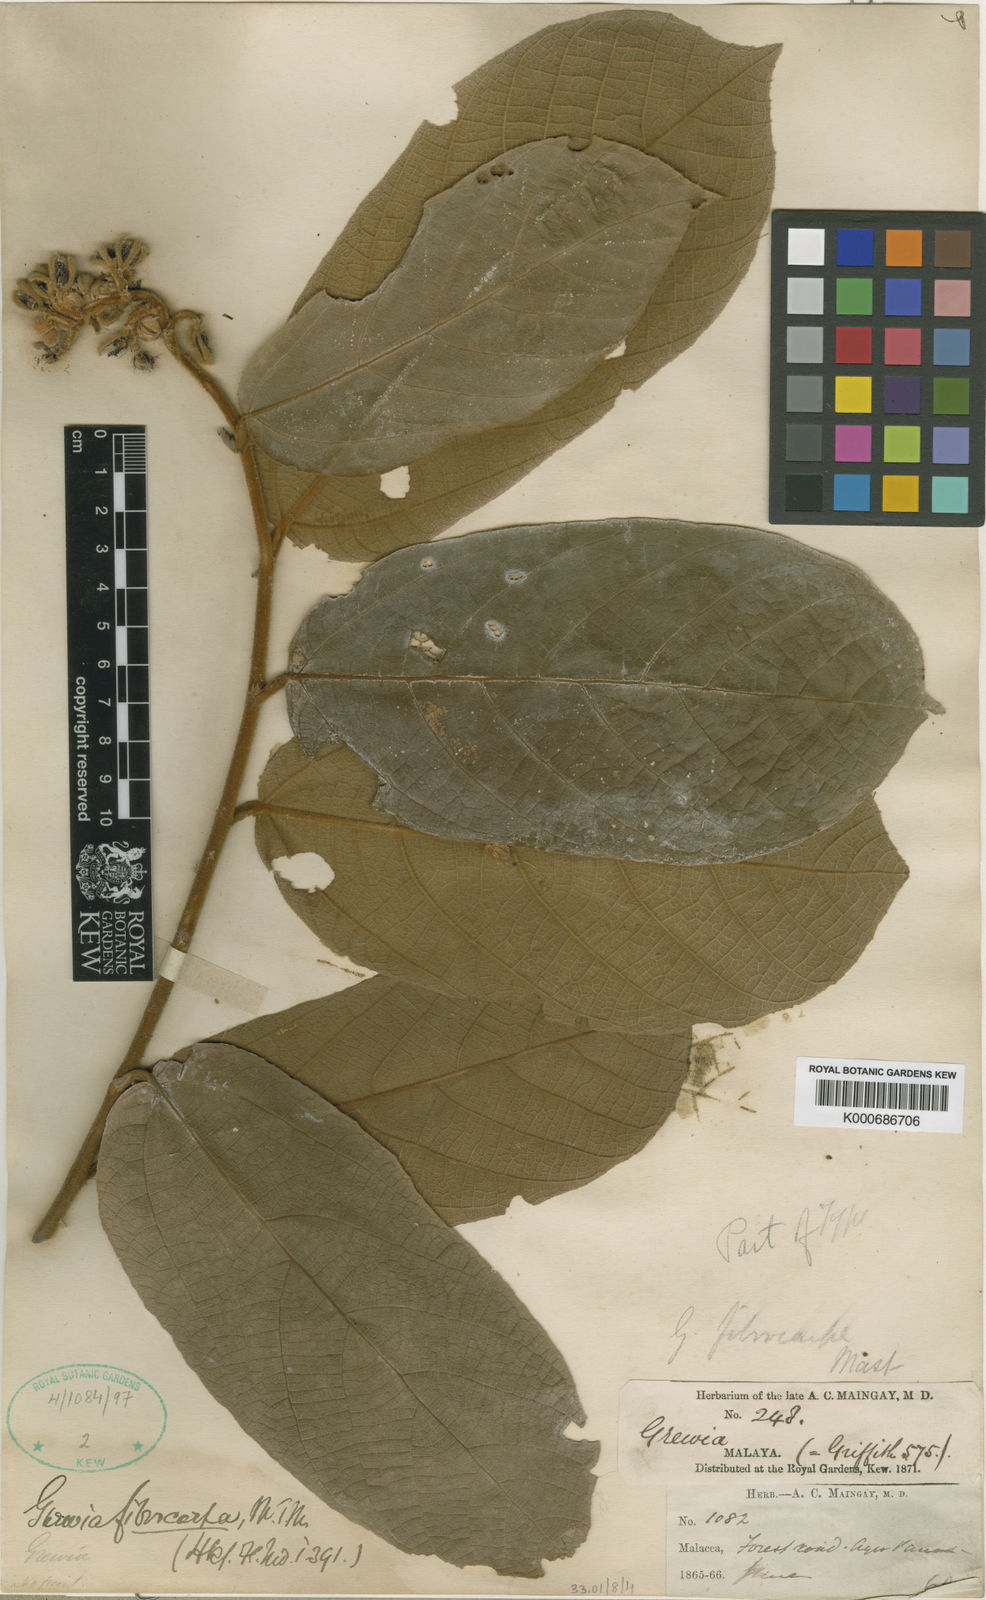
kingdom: Plantae
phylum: Tracheophyta
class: Magnoliopsida
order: Malvales
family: Malvaceae
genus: Microcos
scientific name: Microcos fibrocarpa
